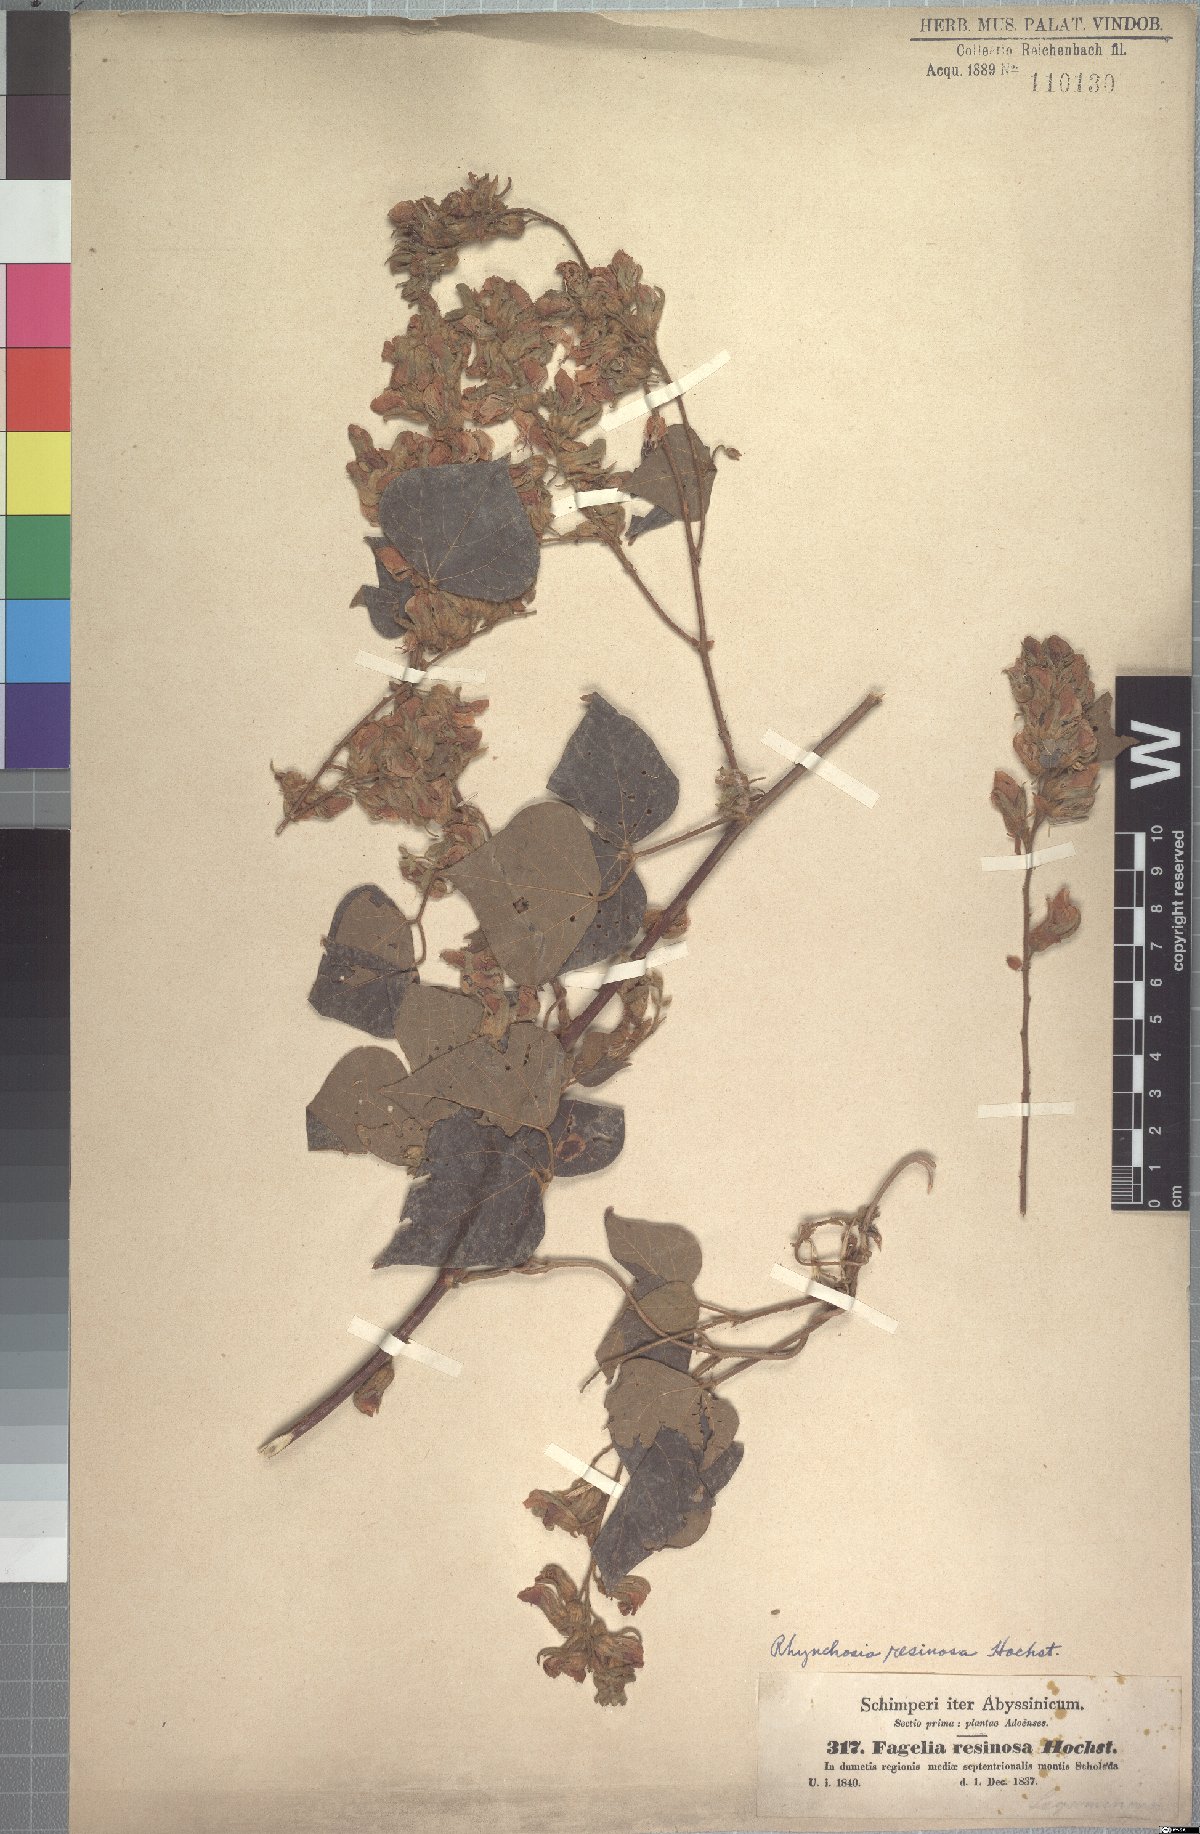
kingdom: Plantae
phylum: Tracheophyta
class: Magnoliopsida
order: Fabales
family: Fabaceae
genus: Rhynchosia
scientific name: Rhynchosia resinosa
